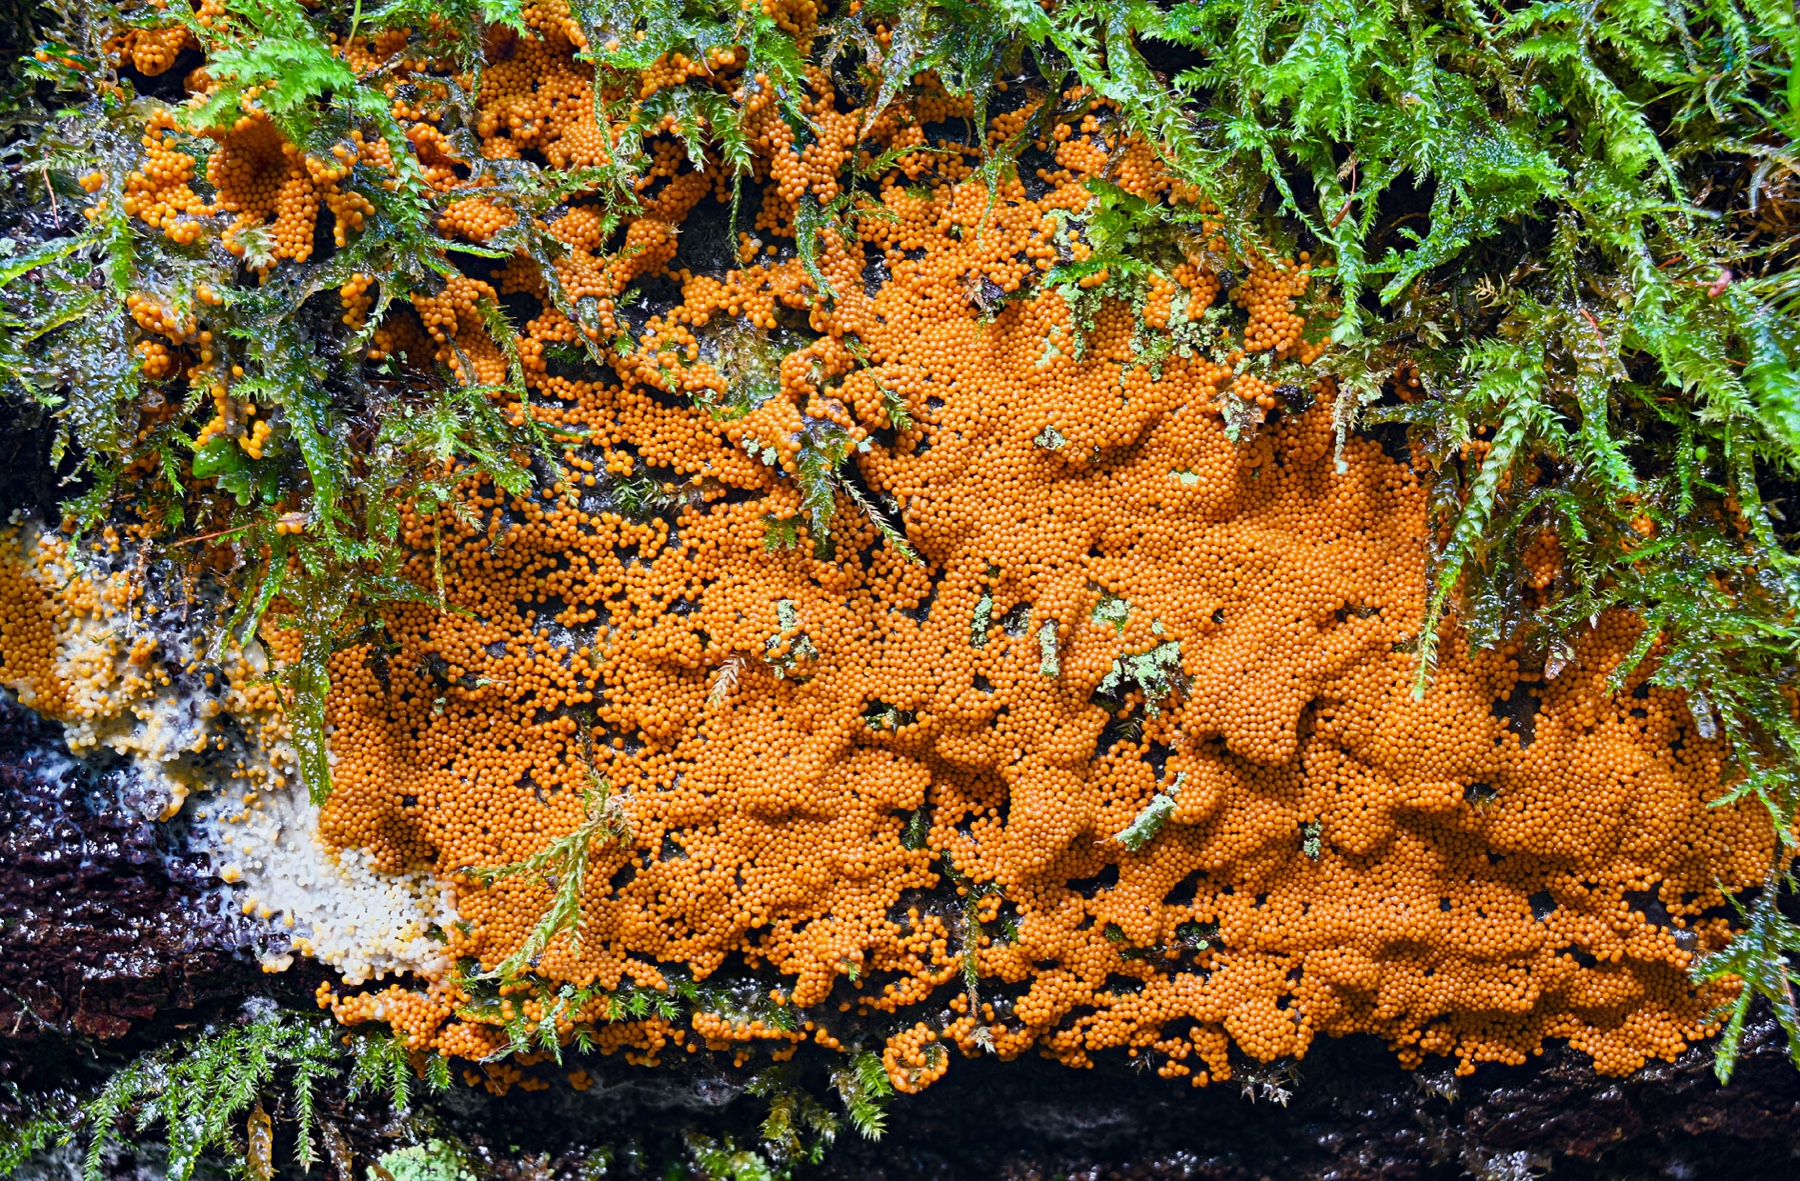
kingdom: Protozoa
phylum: Mycetozoa
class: Myxomycetes
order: Trichiales
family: Trichiaceae
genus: Trichia
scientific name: Trichia scabra
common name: tæppe-hårbold
